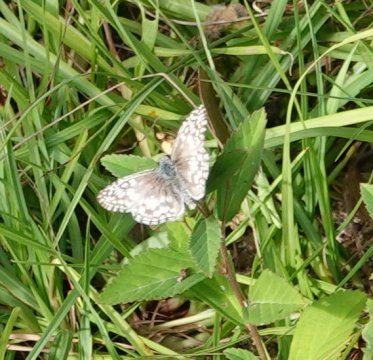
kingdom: Animalia
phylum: Arthropoda
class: Insecta
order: Lepidoptera
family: Hesperiidae
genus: Pyrgus
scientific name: Pyrgus oileus
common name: Tropical Checkered Skipper
